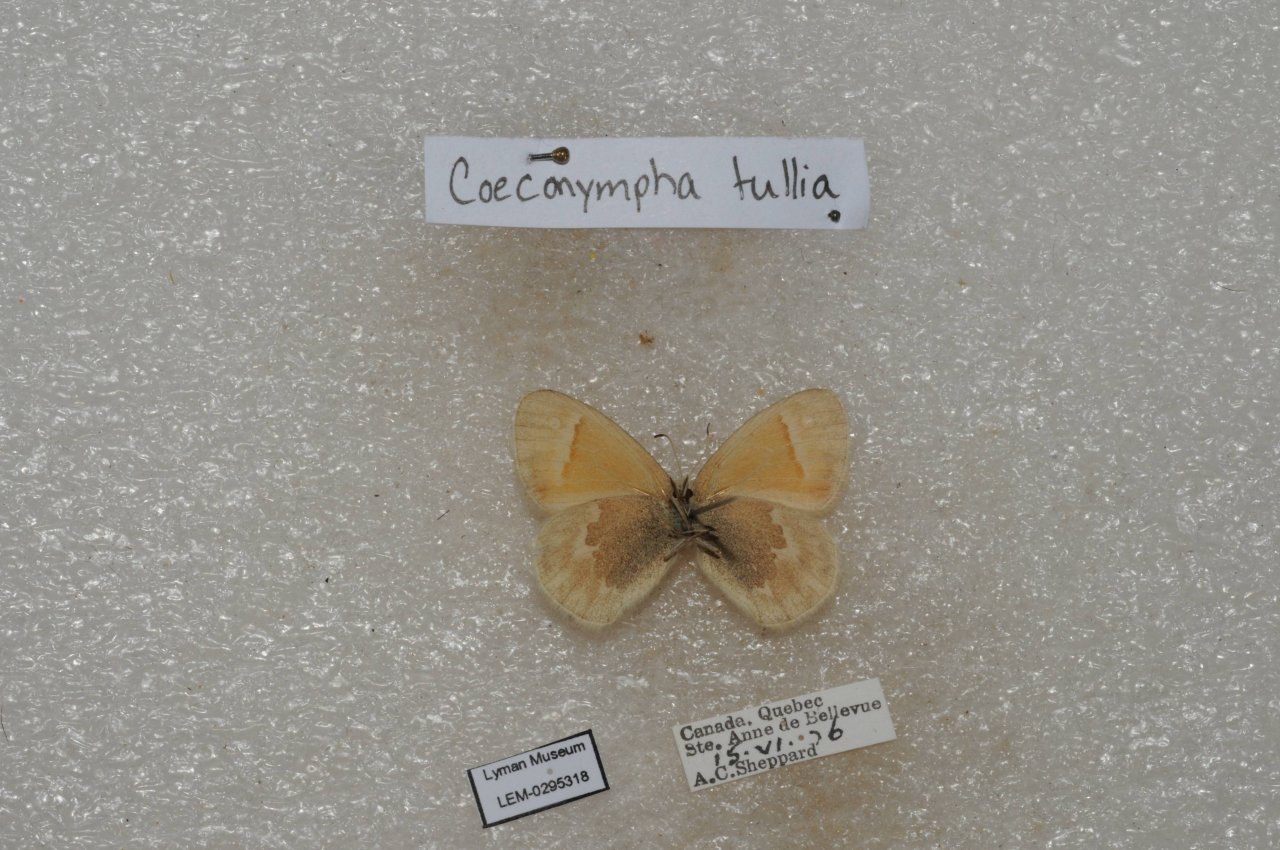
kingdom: Animalia
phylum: Arthropoda
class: Insecta
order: Lepidoptera
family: Nymphalidae
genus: Coenonympha
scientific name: Coenonympha tullia
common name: Large Heath
